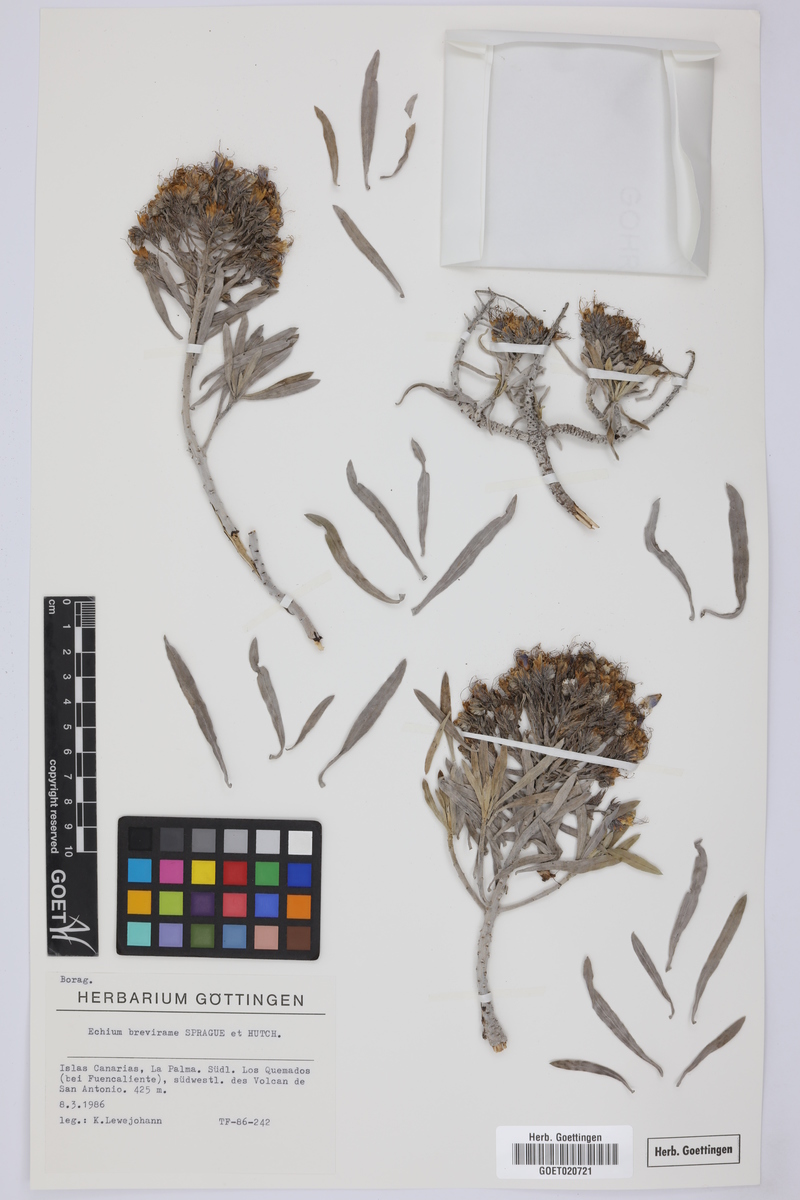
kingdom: Plantae
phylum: Tracheophyta
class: Magnoliopsida
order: Boraginales
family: Boraginaceae
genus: Echium
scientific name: Echium brevirame
